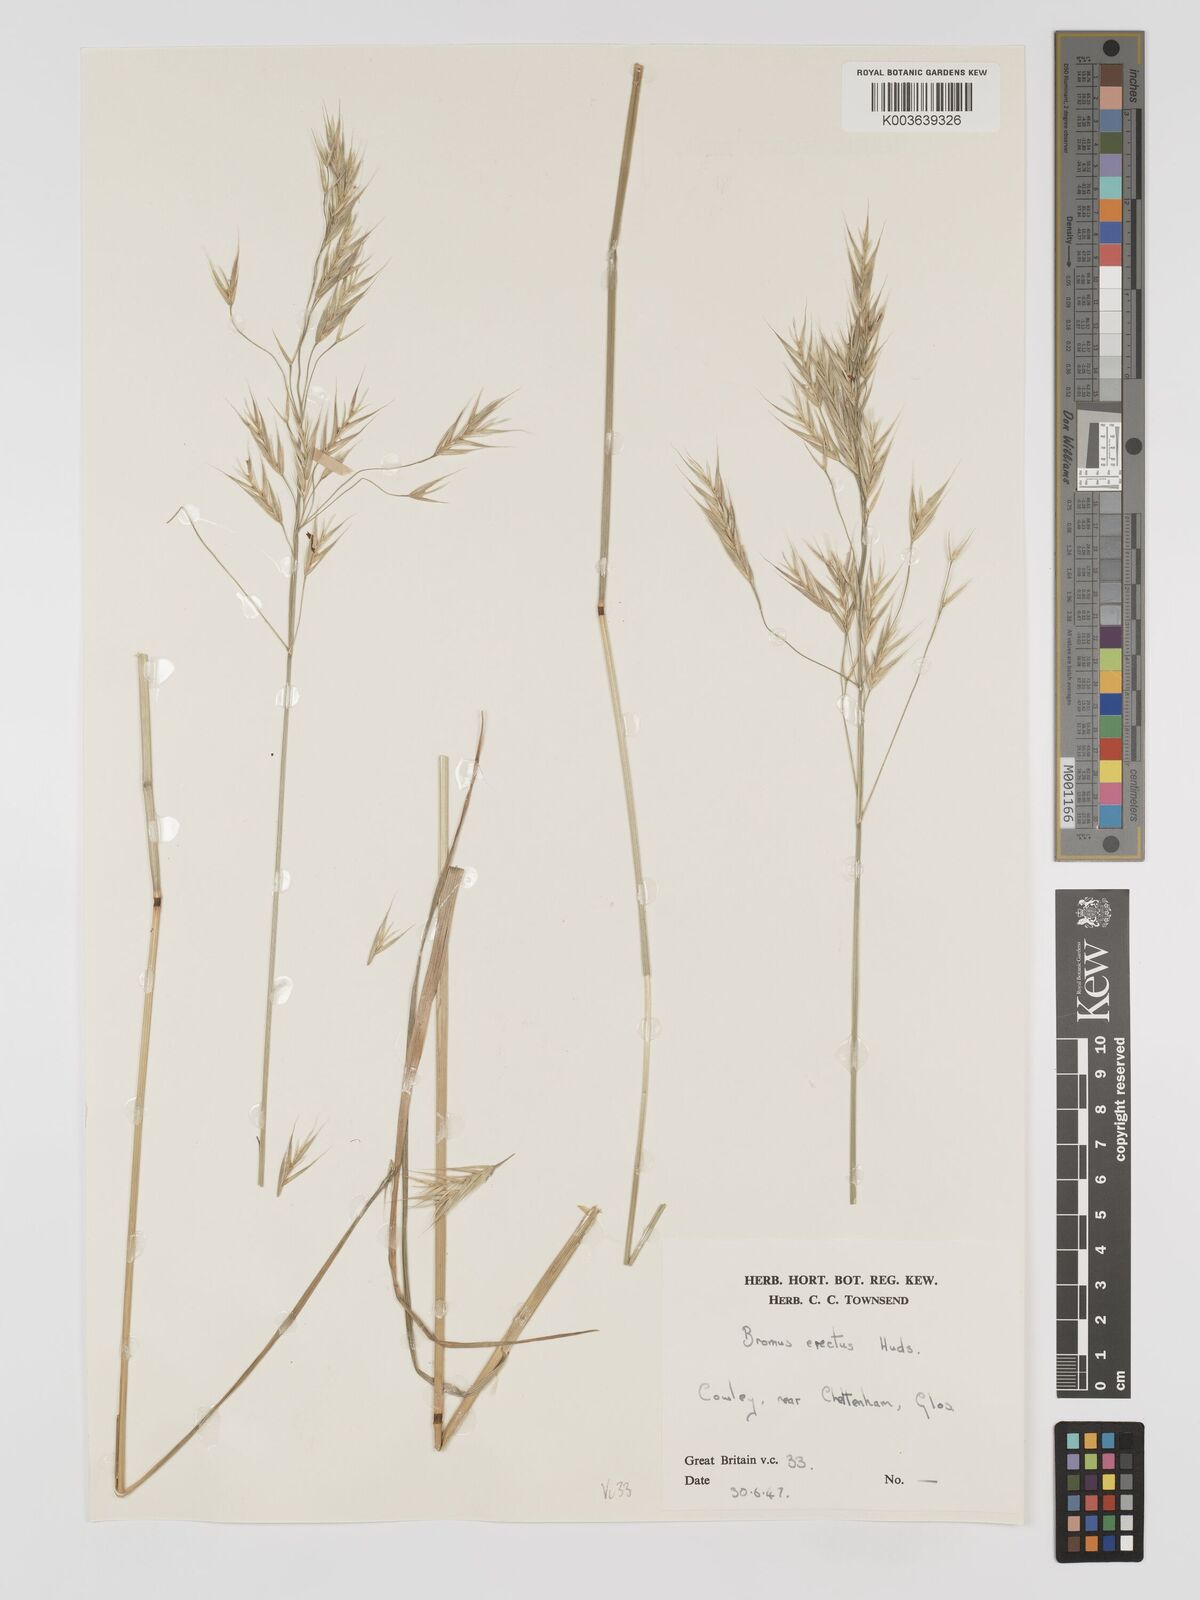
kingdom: Plantae
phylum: Tracheophyta
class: Liliopsida
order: Poales
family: Poaceae
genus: Bromus
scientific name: Bromus erectus
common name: Erect brome
